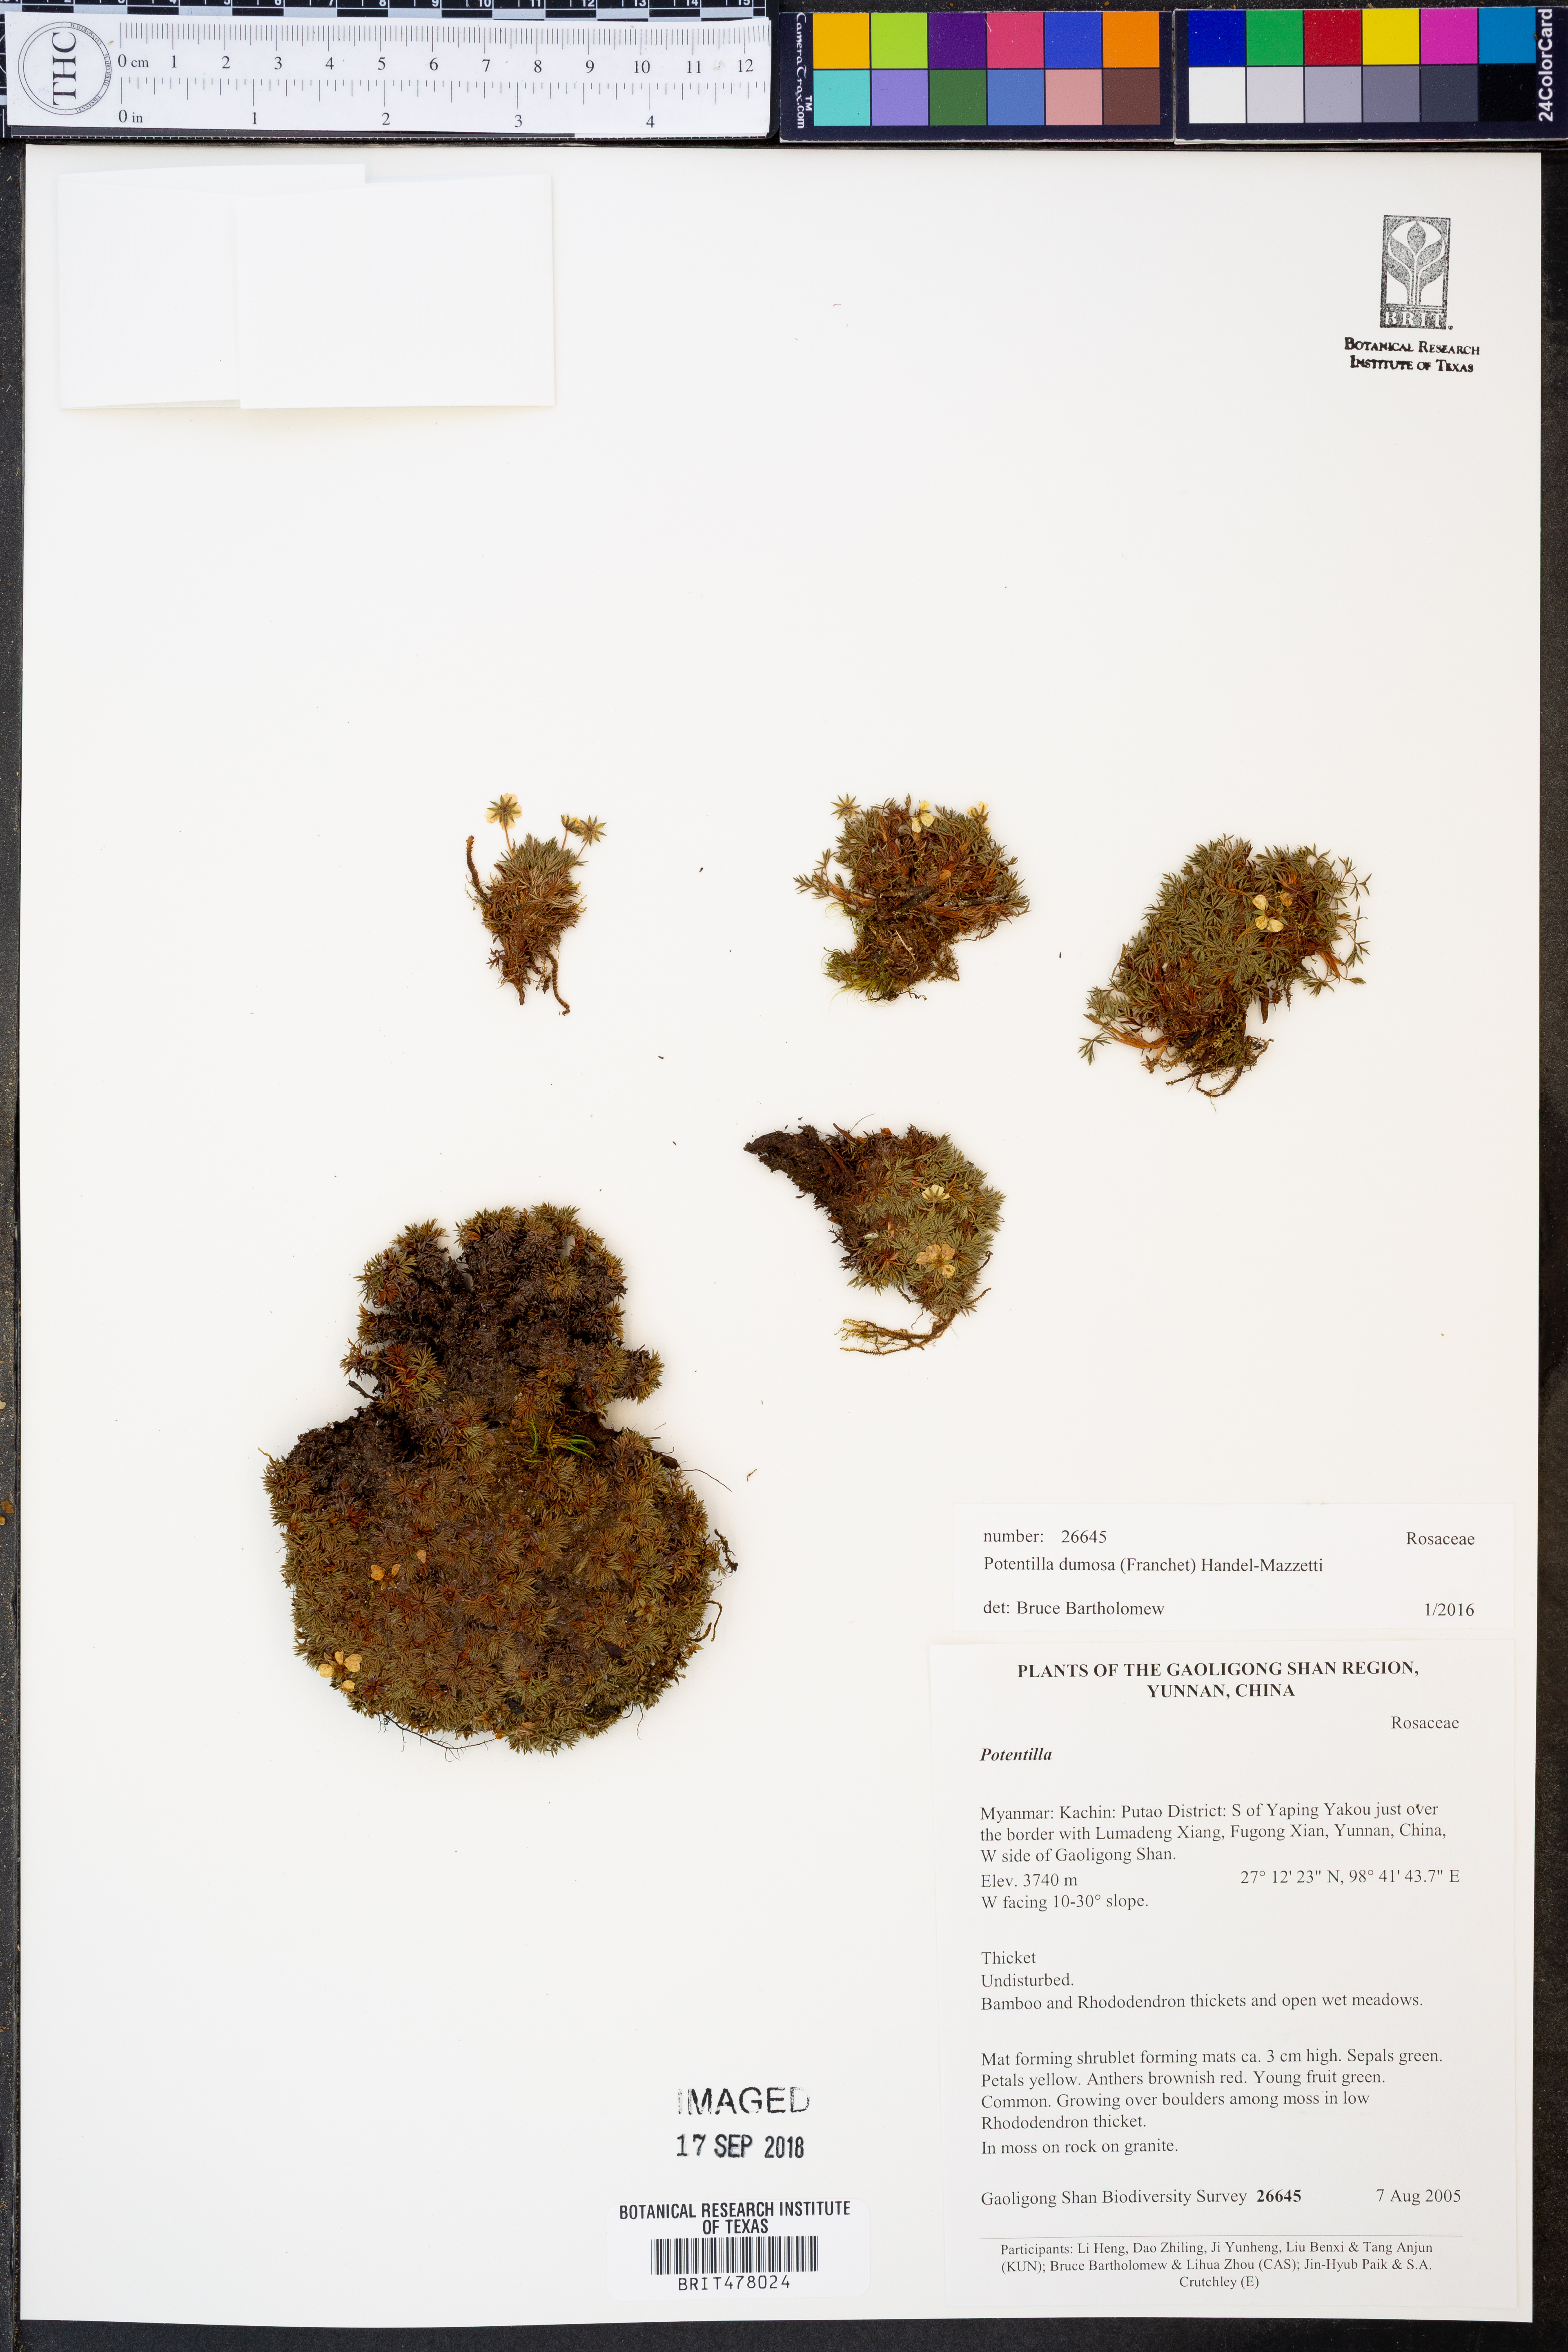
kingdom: Plantae
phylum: Tracheophyta
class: Magnoliopsida
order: Rosales
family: Rosaceae
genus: Potentilla
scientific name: Potentilla coriandrifolia
